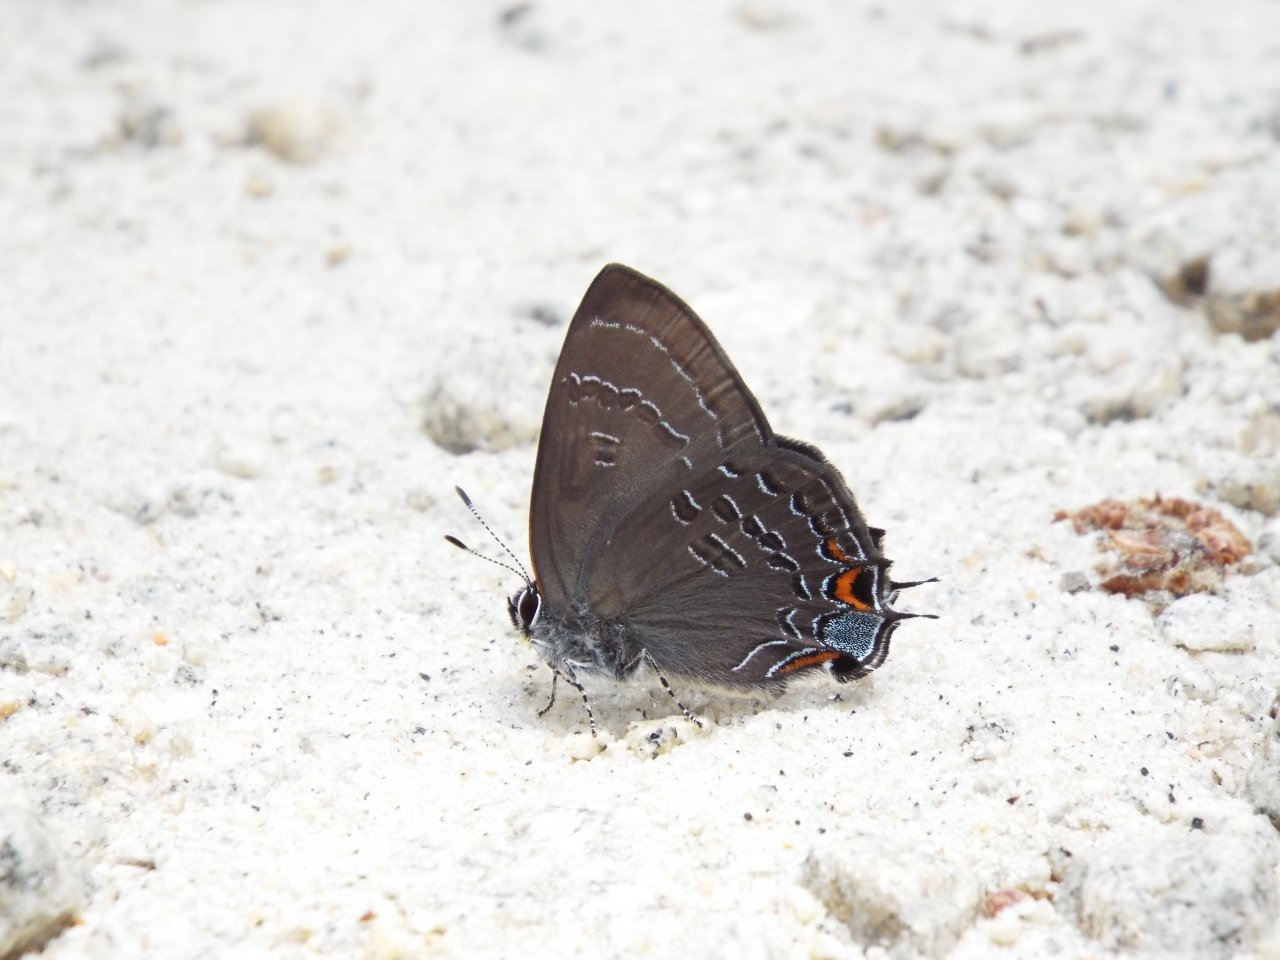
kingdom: Animalia
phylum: Arthropoda
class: Insecta
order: Lepidoptera
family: Lycaenidae
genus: Satyrium
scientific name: Satyrium calanus
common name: Banded Hairstreak
